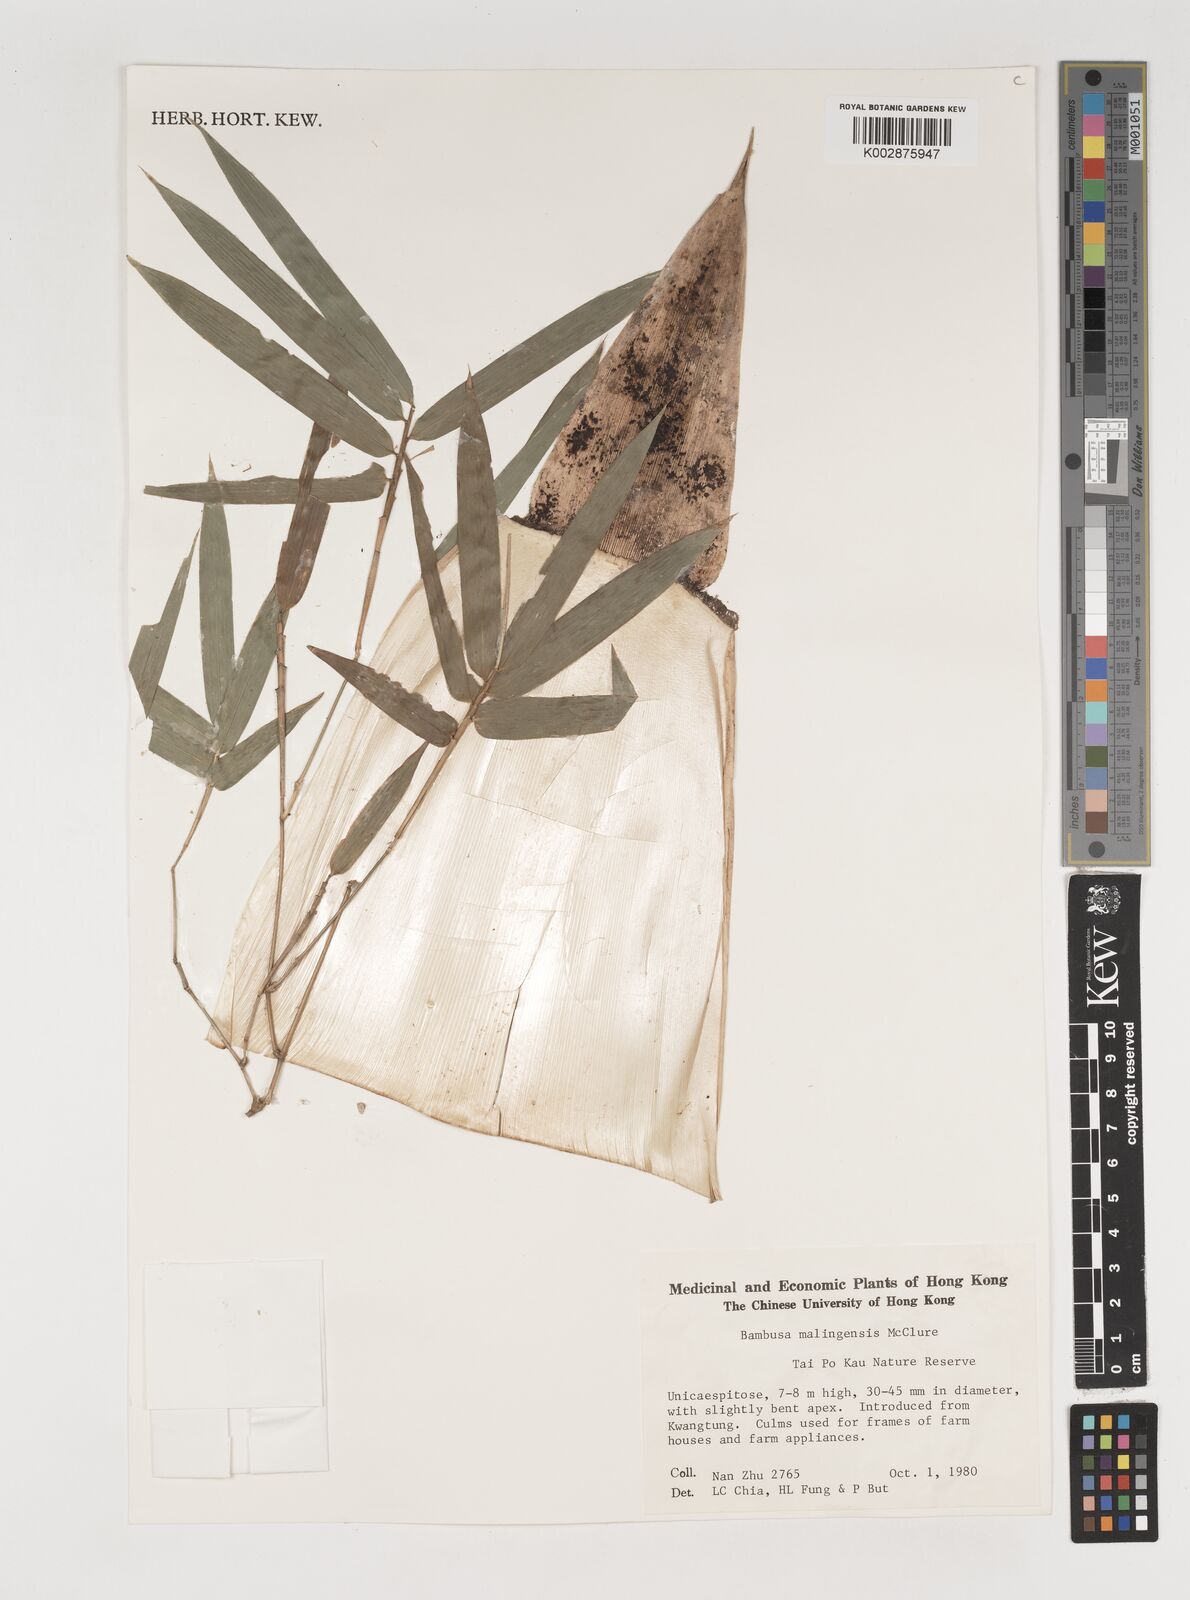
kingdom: Plantae
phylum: Tracheophyta
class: Liliopsida
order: Poales
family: Poaceae
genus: Bambusa
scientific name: Bambusa malingensis
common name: Maling bamboo
